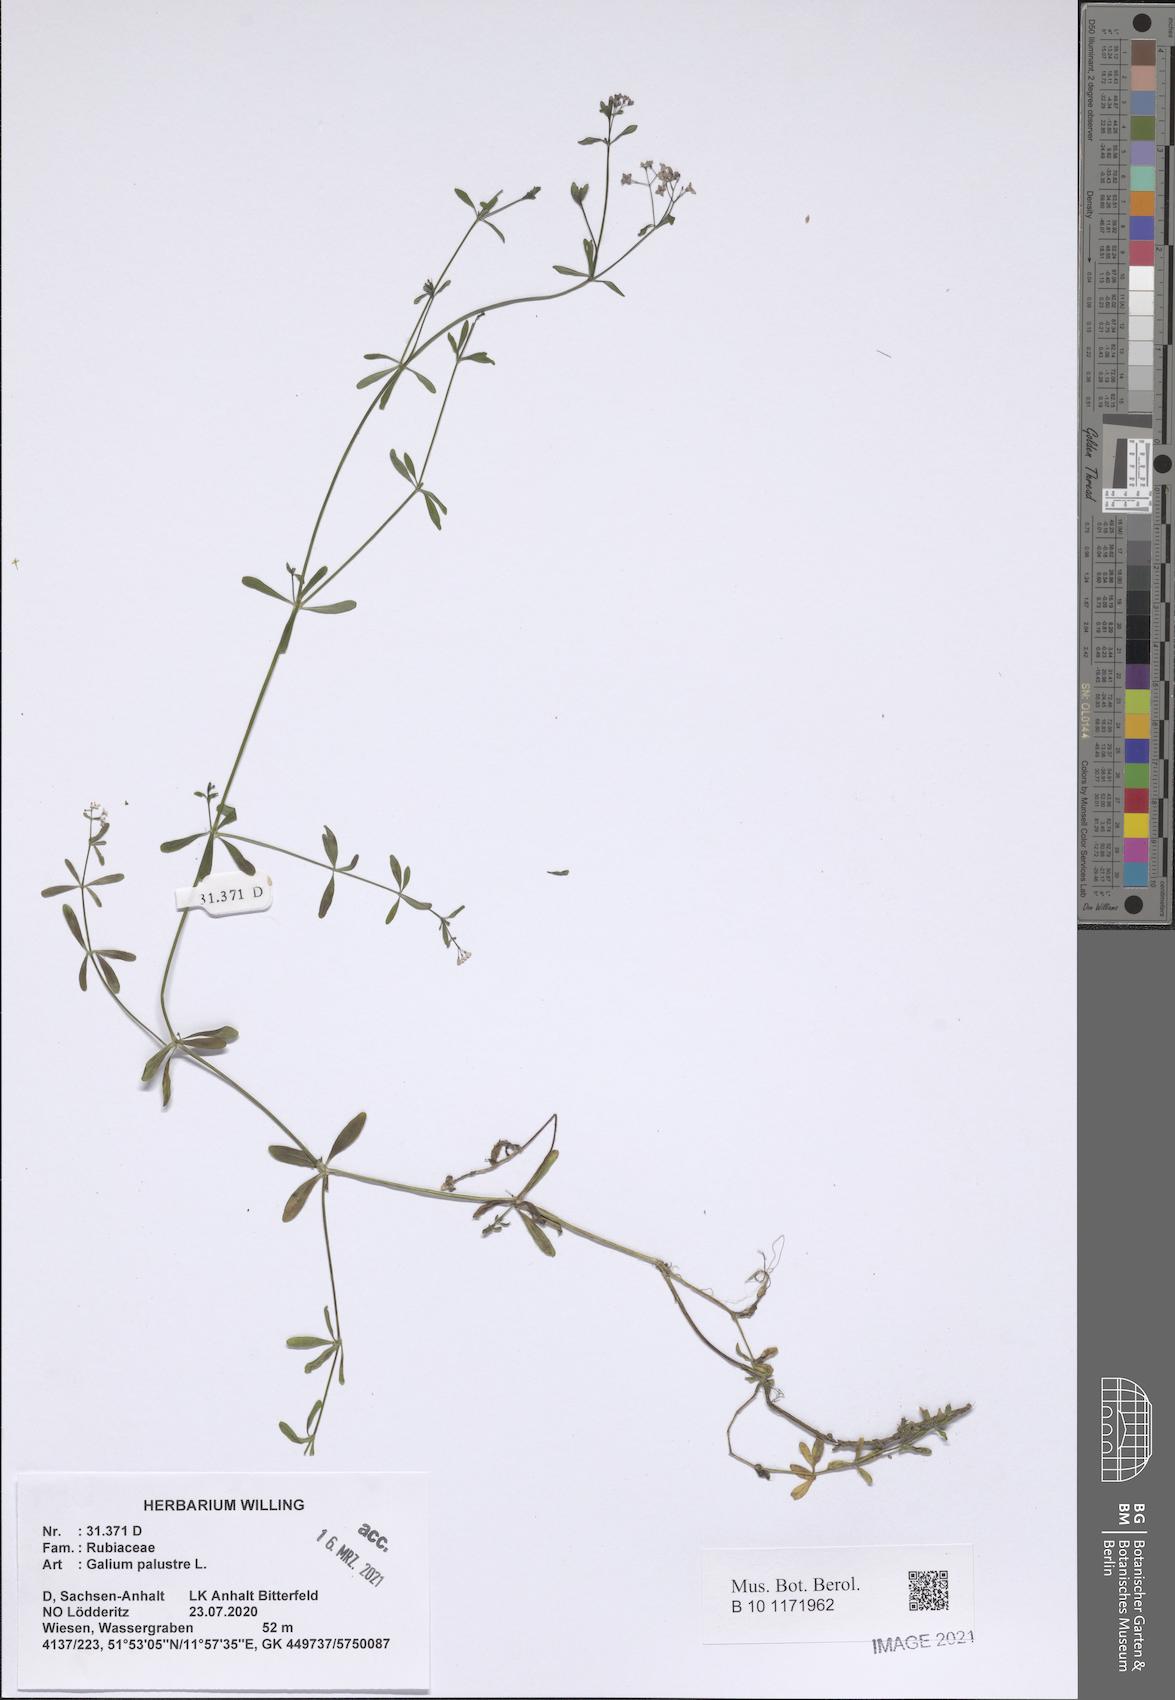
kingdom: Plantae
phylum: Tracheophyta
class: Magnoliopsida
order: Gentianales
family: Rubiaceae
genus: Galium
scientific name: Galium palustre
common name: Common marsh-bedstraw
